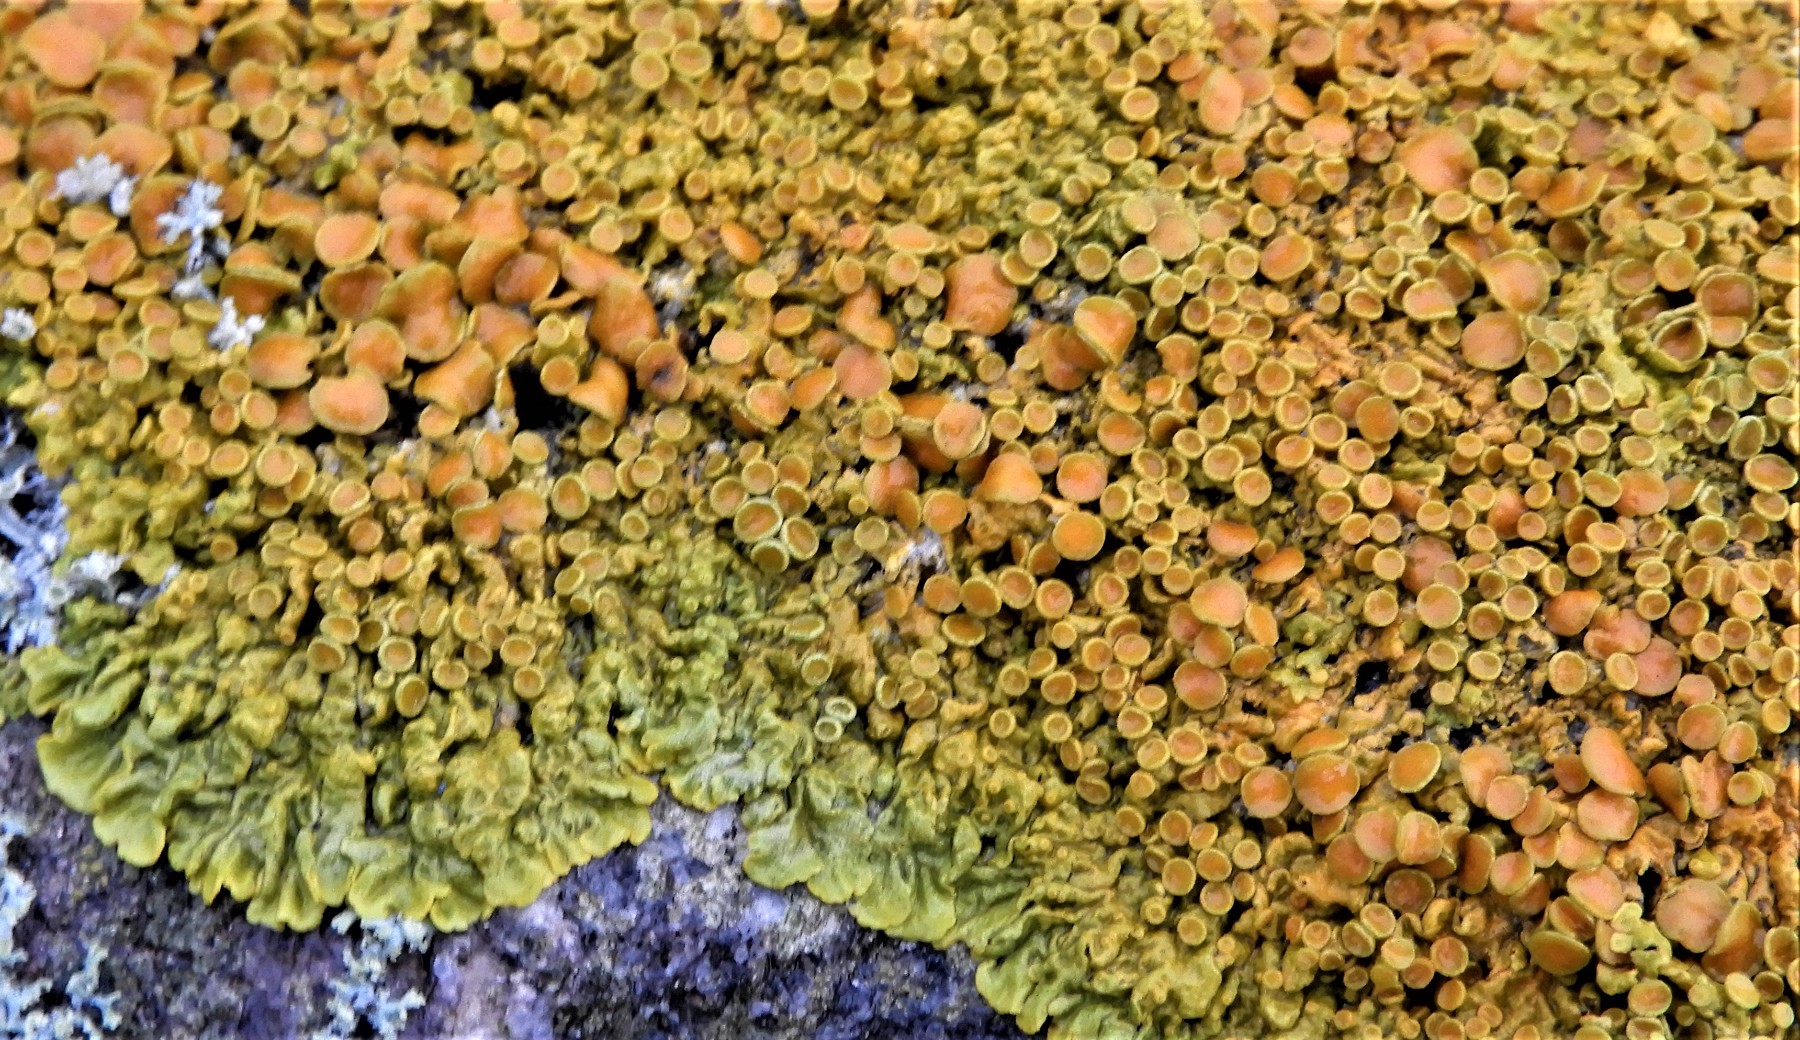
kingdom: Fungi
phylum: Ascomycota
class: Lecanoromycetes
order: Teloschistales
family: Teloschistaceae
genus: Xanthoria
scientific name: Xanthoria parietina
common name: almindelig væggelav
